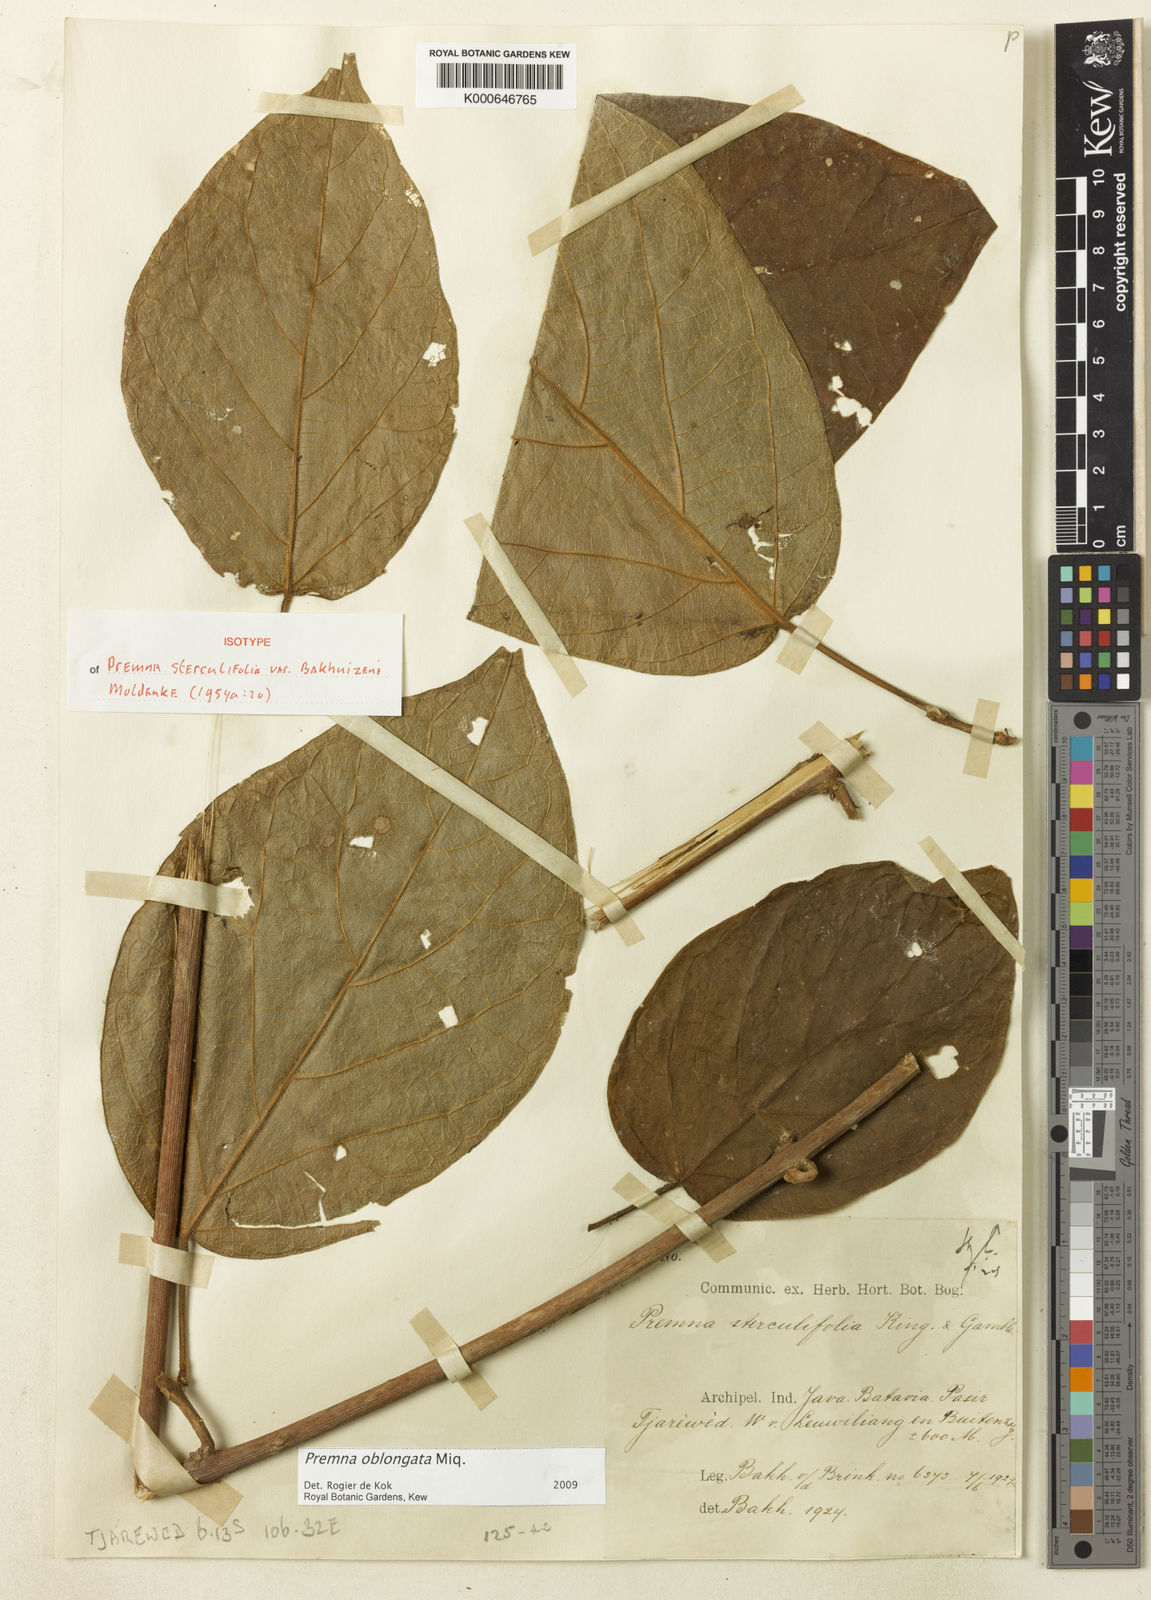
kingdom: Plantae
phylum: Tracheophyta
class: Magnoliopsida
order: Lamiales
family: Lamiaceae
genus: Premna
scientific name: Premna oblongata
